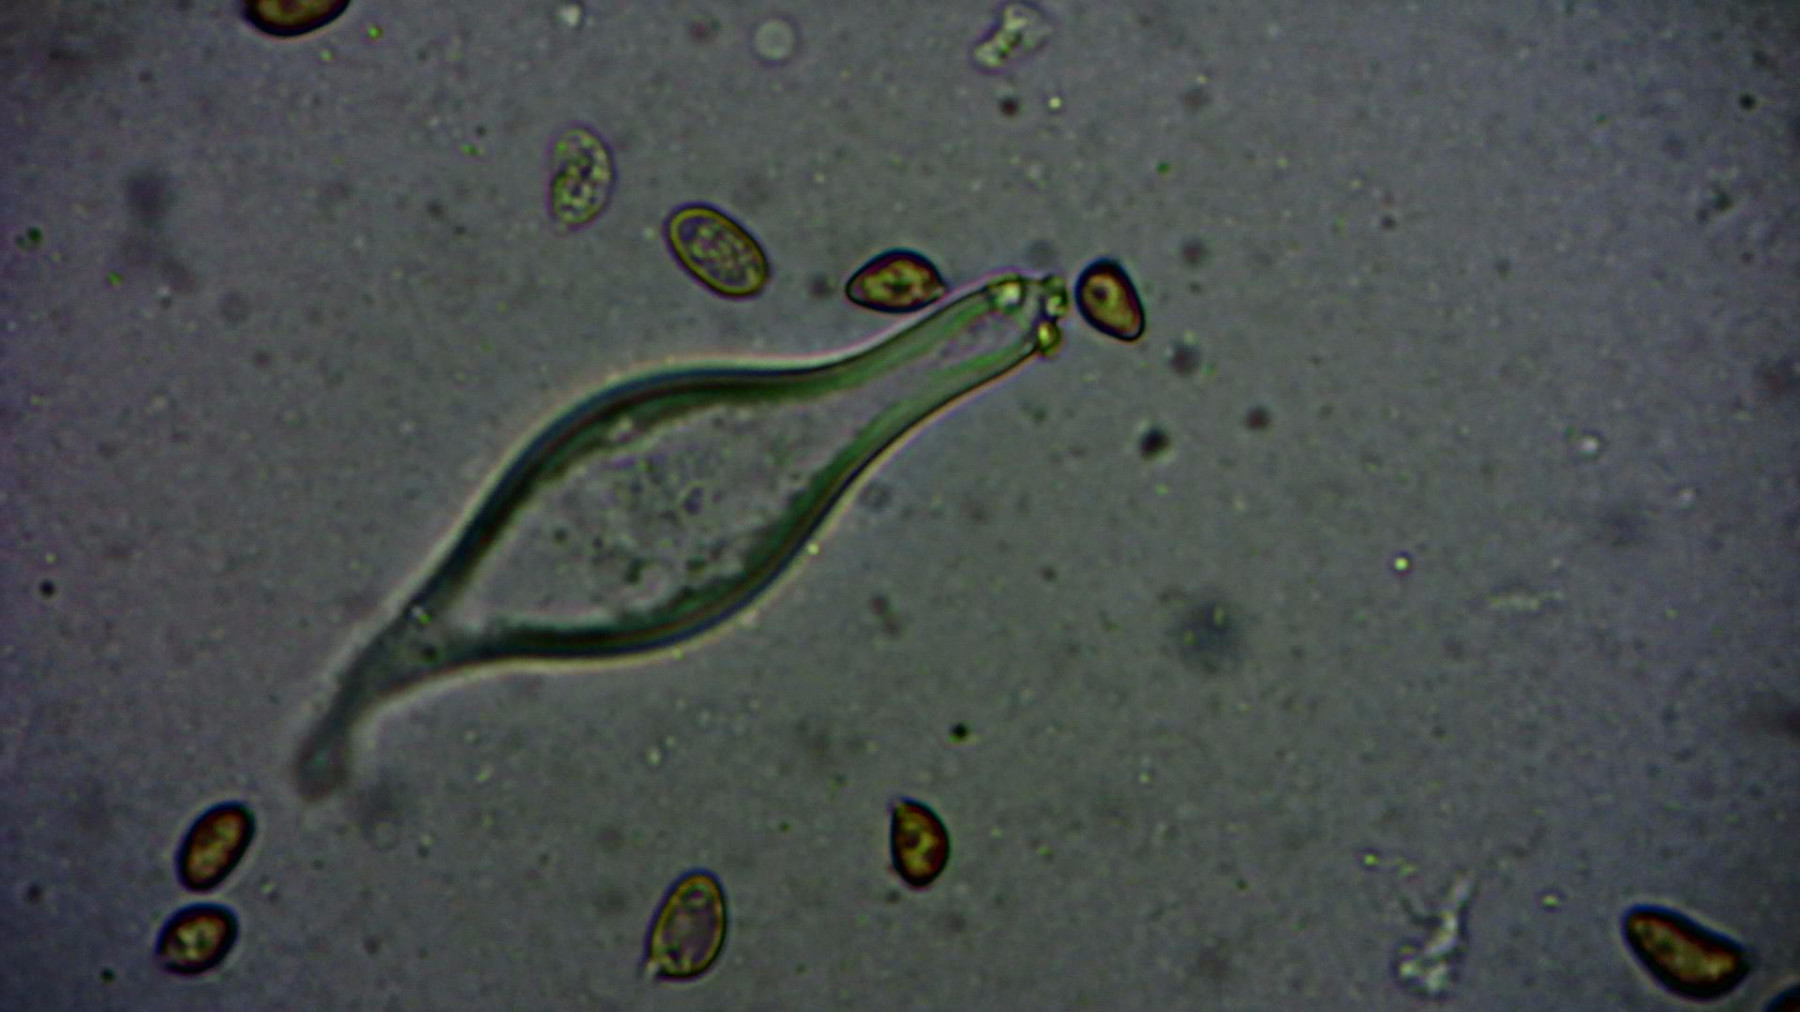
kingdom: Fungi
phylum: Basidiomycota
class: Agaricomycetes
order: Agaricales
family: Inocybaceae
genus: Inocybe
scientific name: Inocybe
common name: trævlhat
